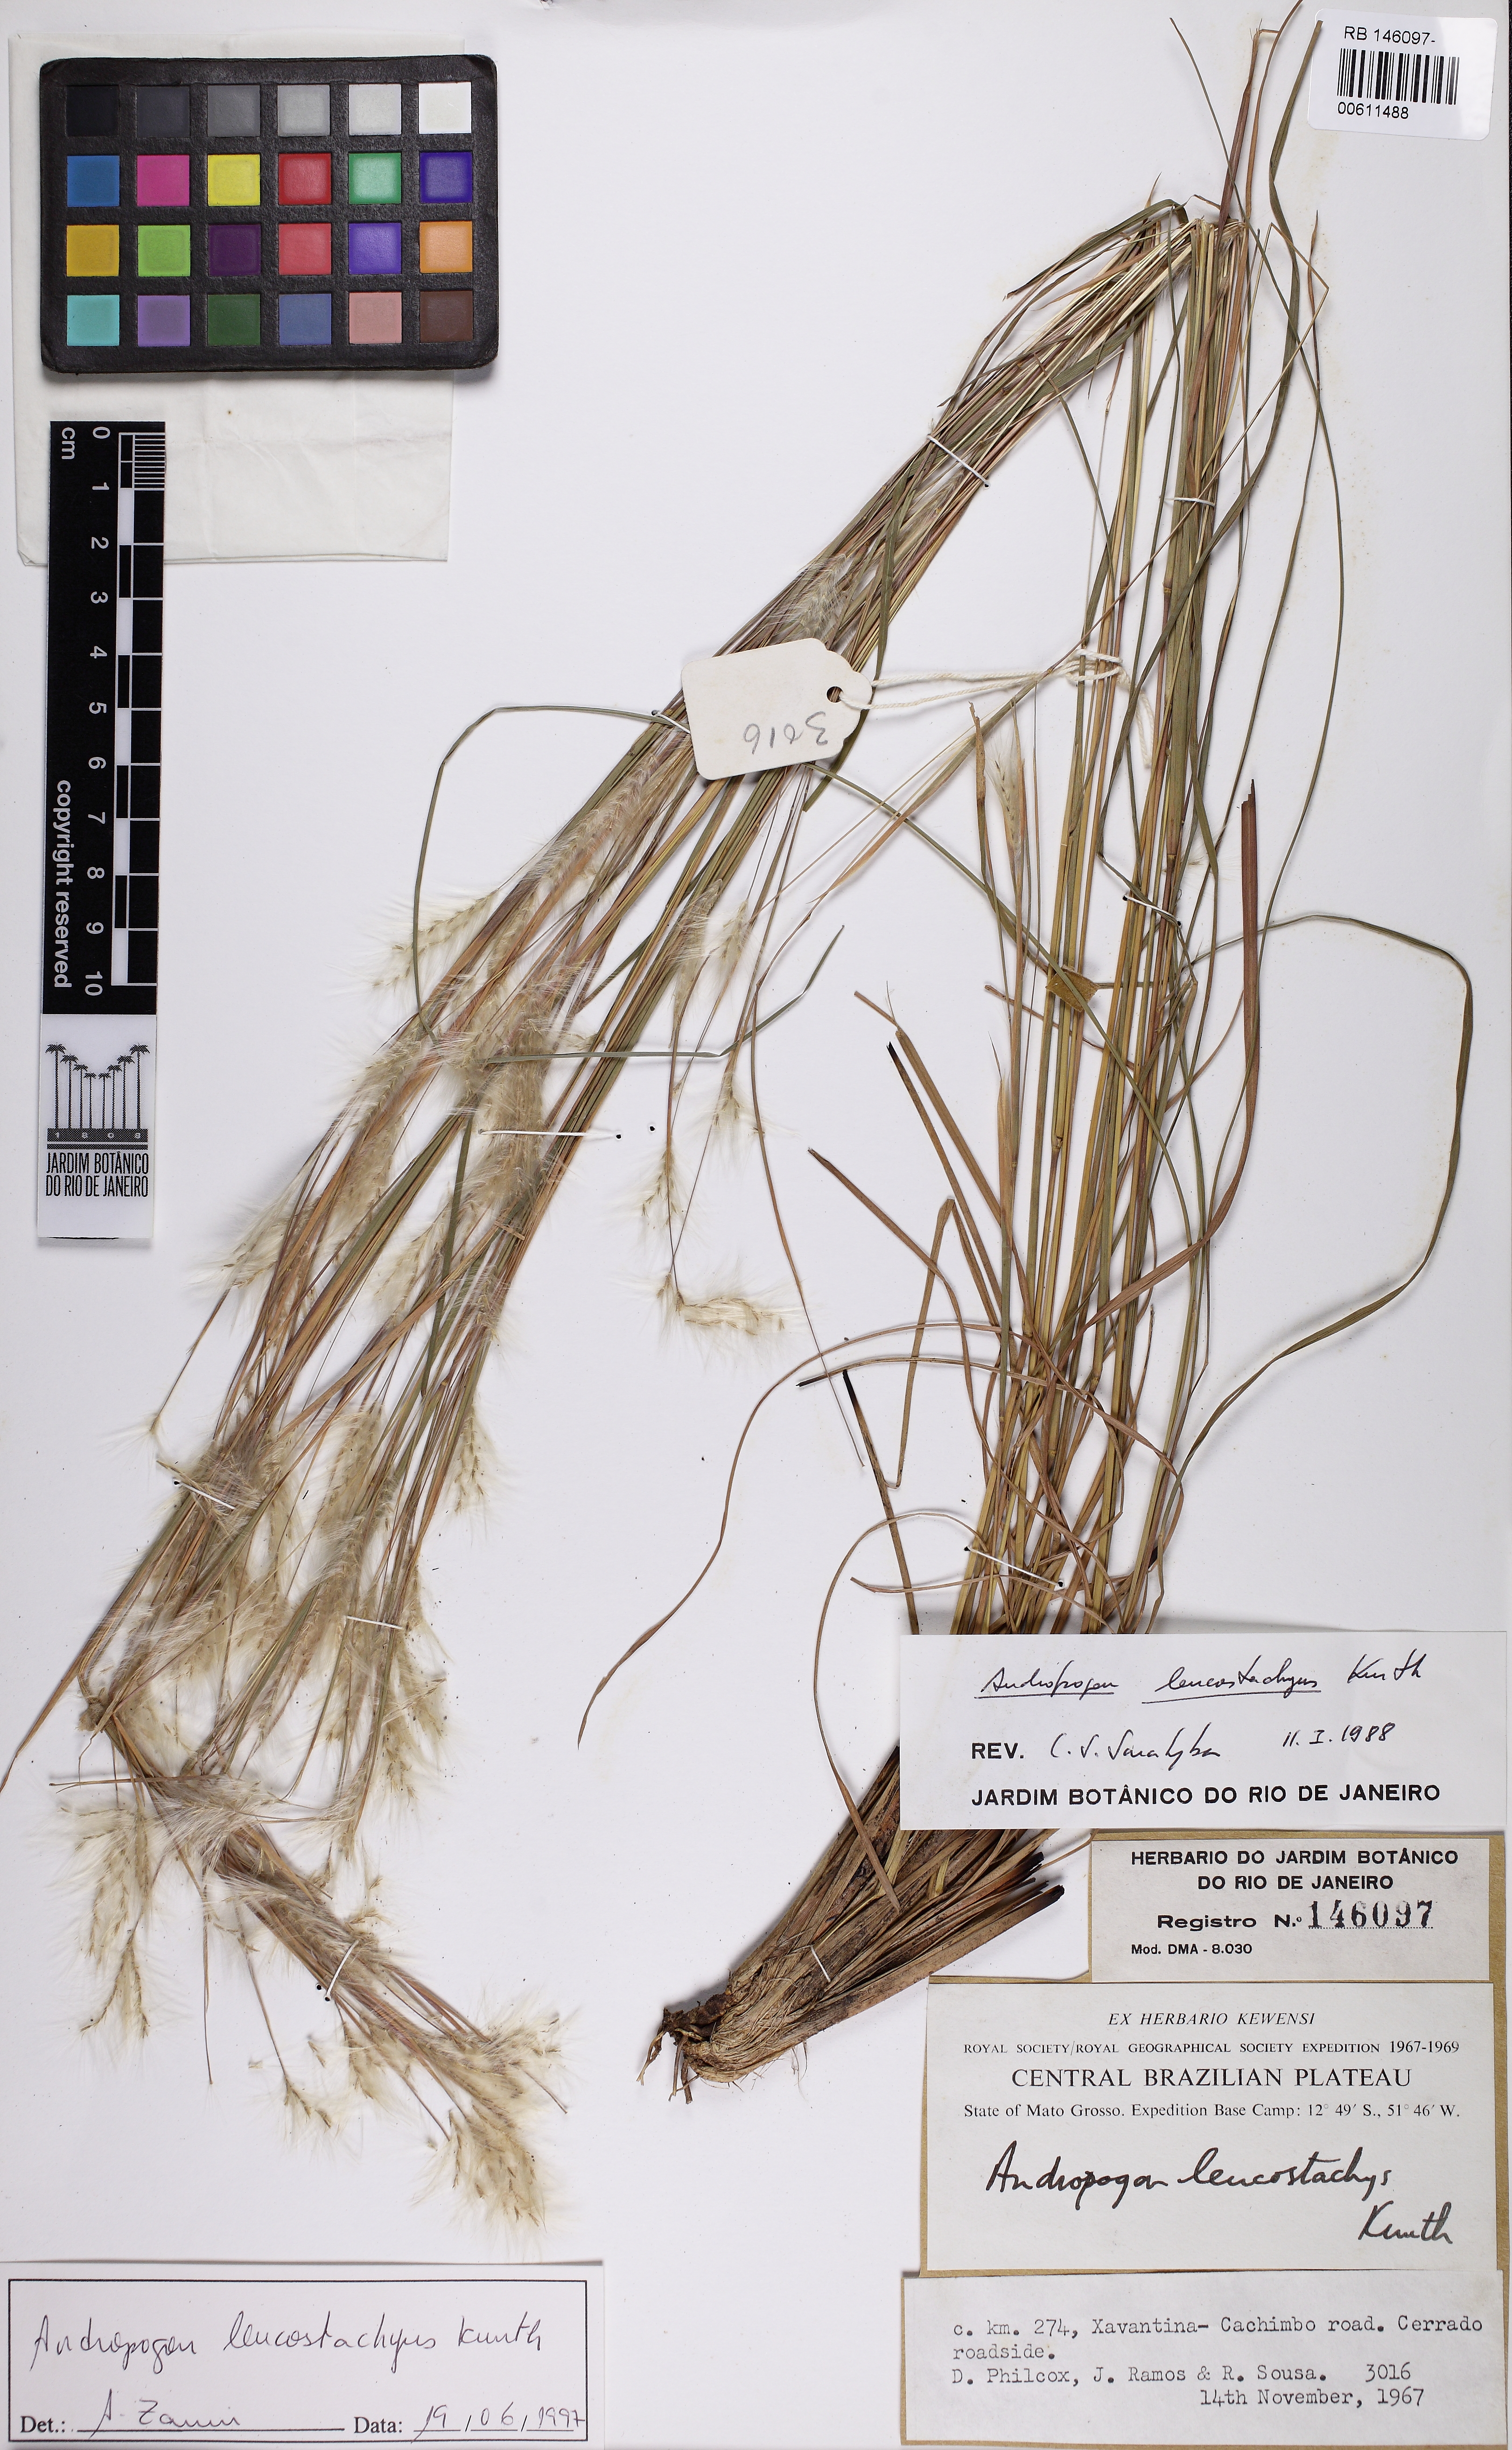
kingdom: Plantae
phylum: Tracheophyta
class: Liliopsida
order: Poales
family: Poaceae
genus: Andropogon
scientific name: Andropogon leucostachyus
